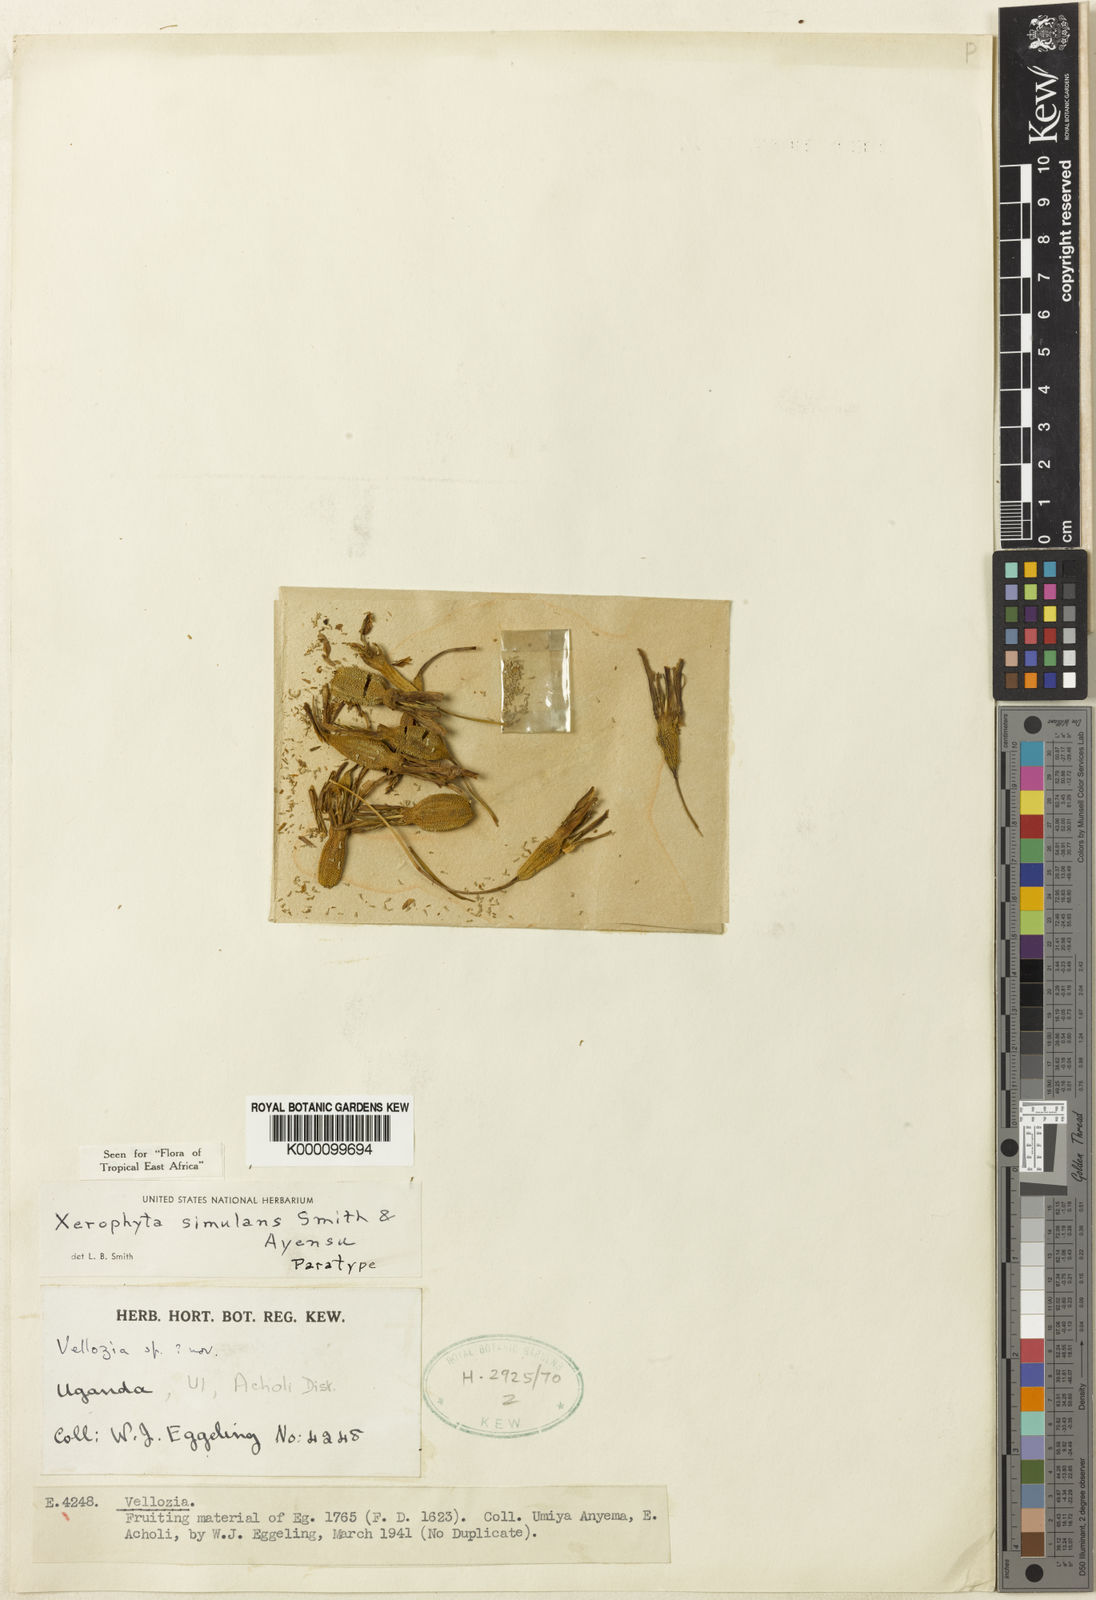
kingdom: Plantae
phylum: Tracheophyta
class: Liliopsida
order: Pandanales
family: Velloziaceae
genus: Xerophyta
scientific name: Xerophyta simulans
